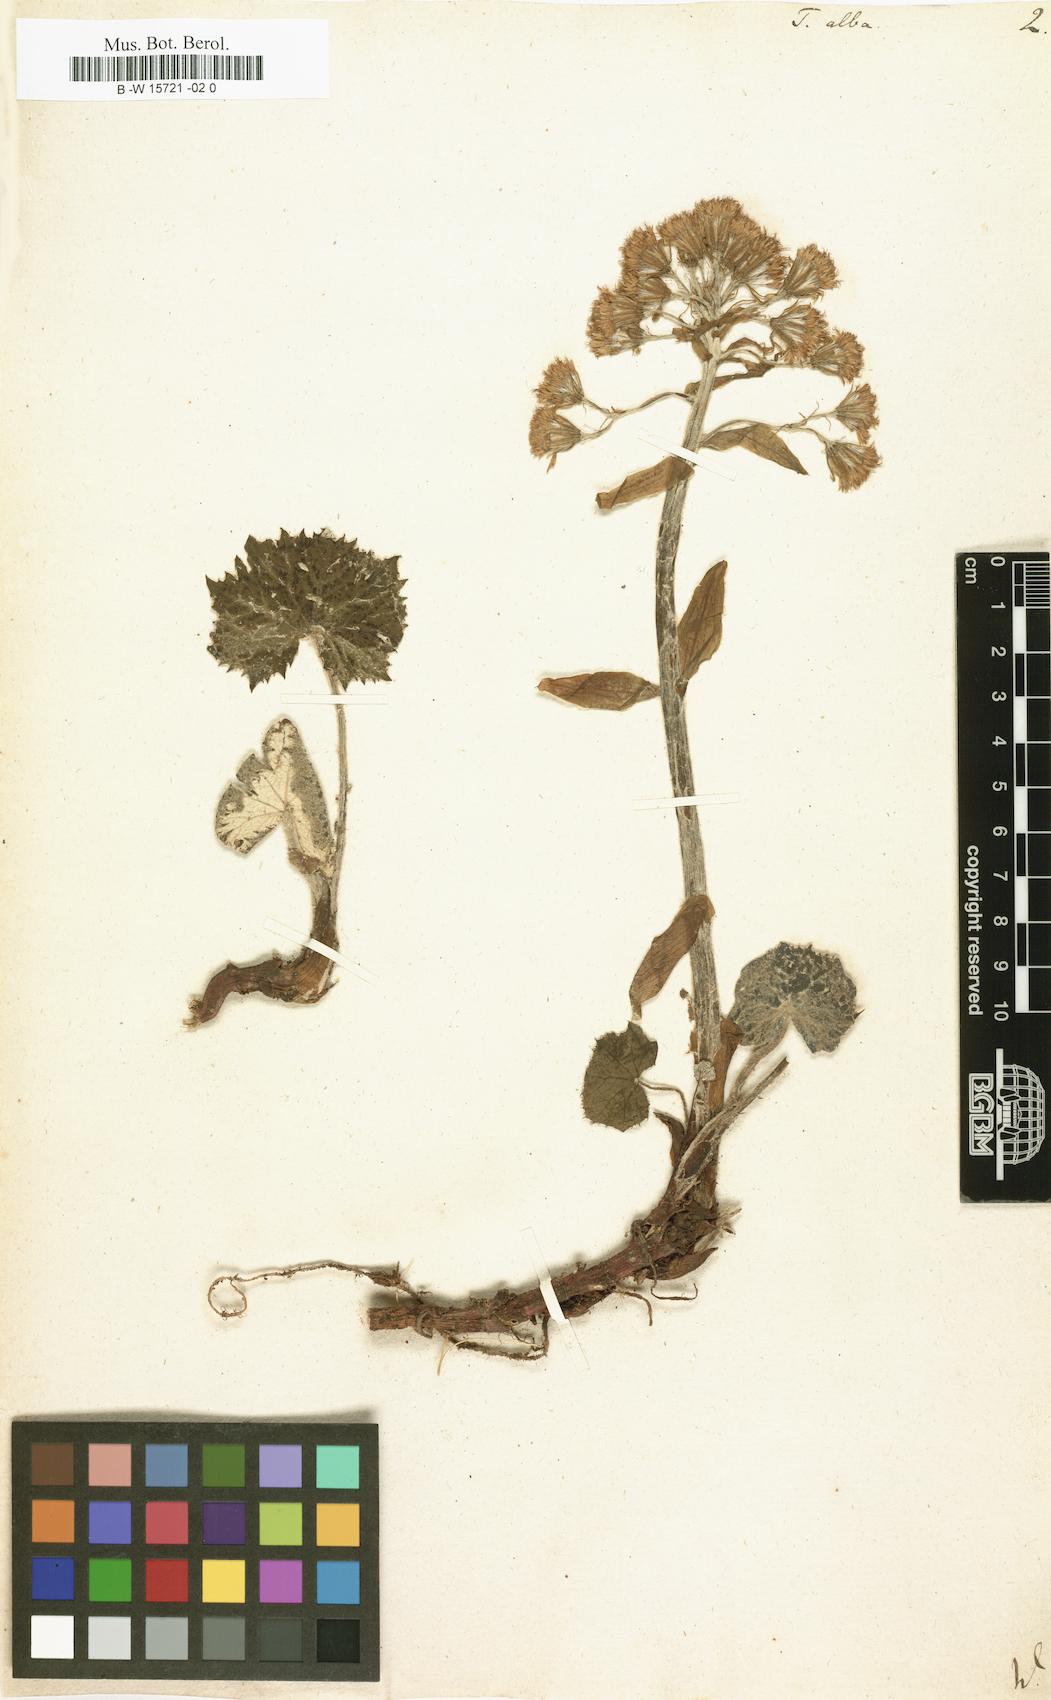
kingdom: Plantae
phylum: Tracheophyta
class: Magnoliopsida
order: Asterales
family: Asteraceae
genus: Petasites
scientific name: Petasites albus
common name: White butterbur
